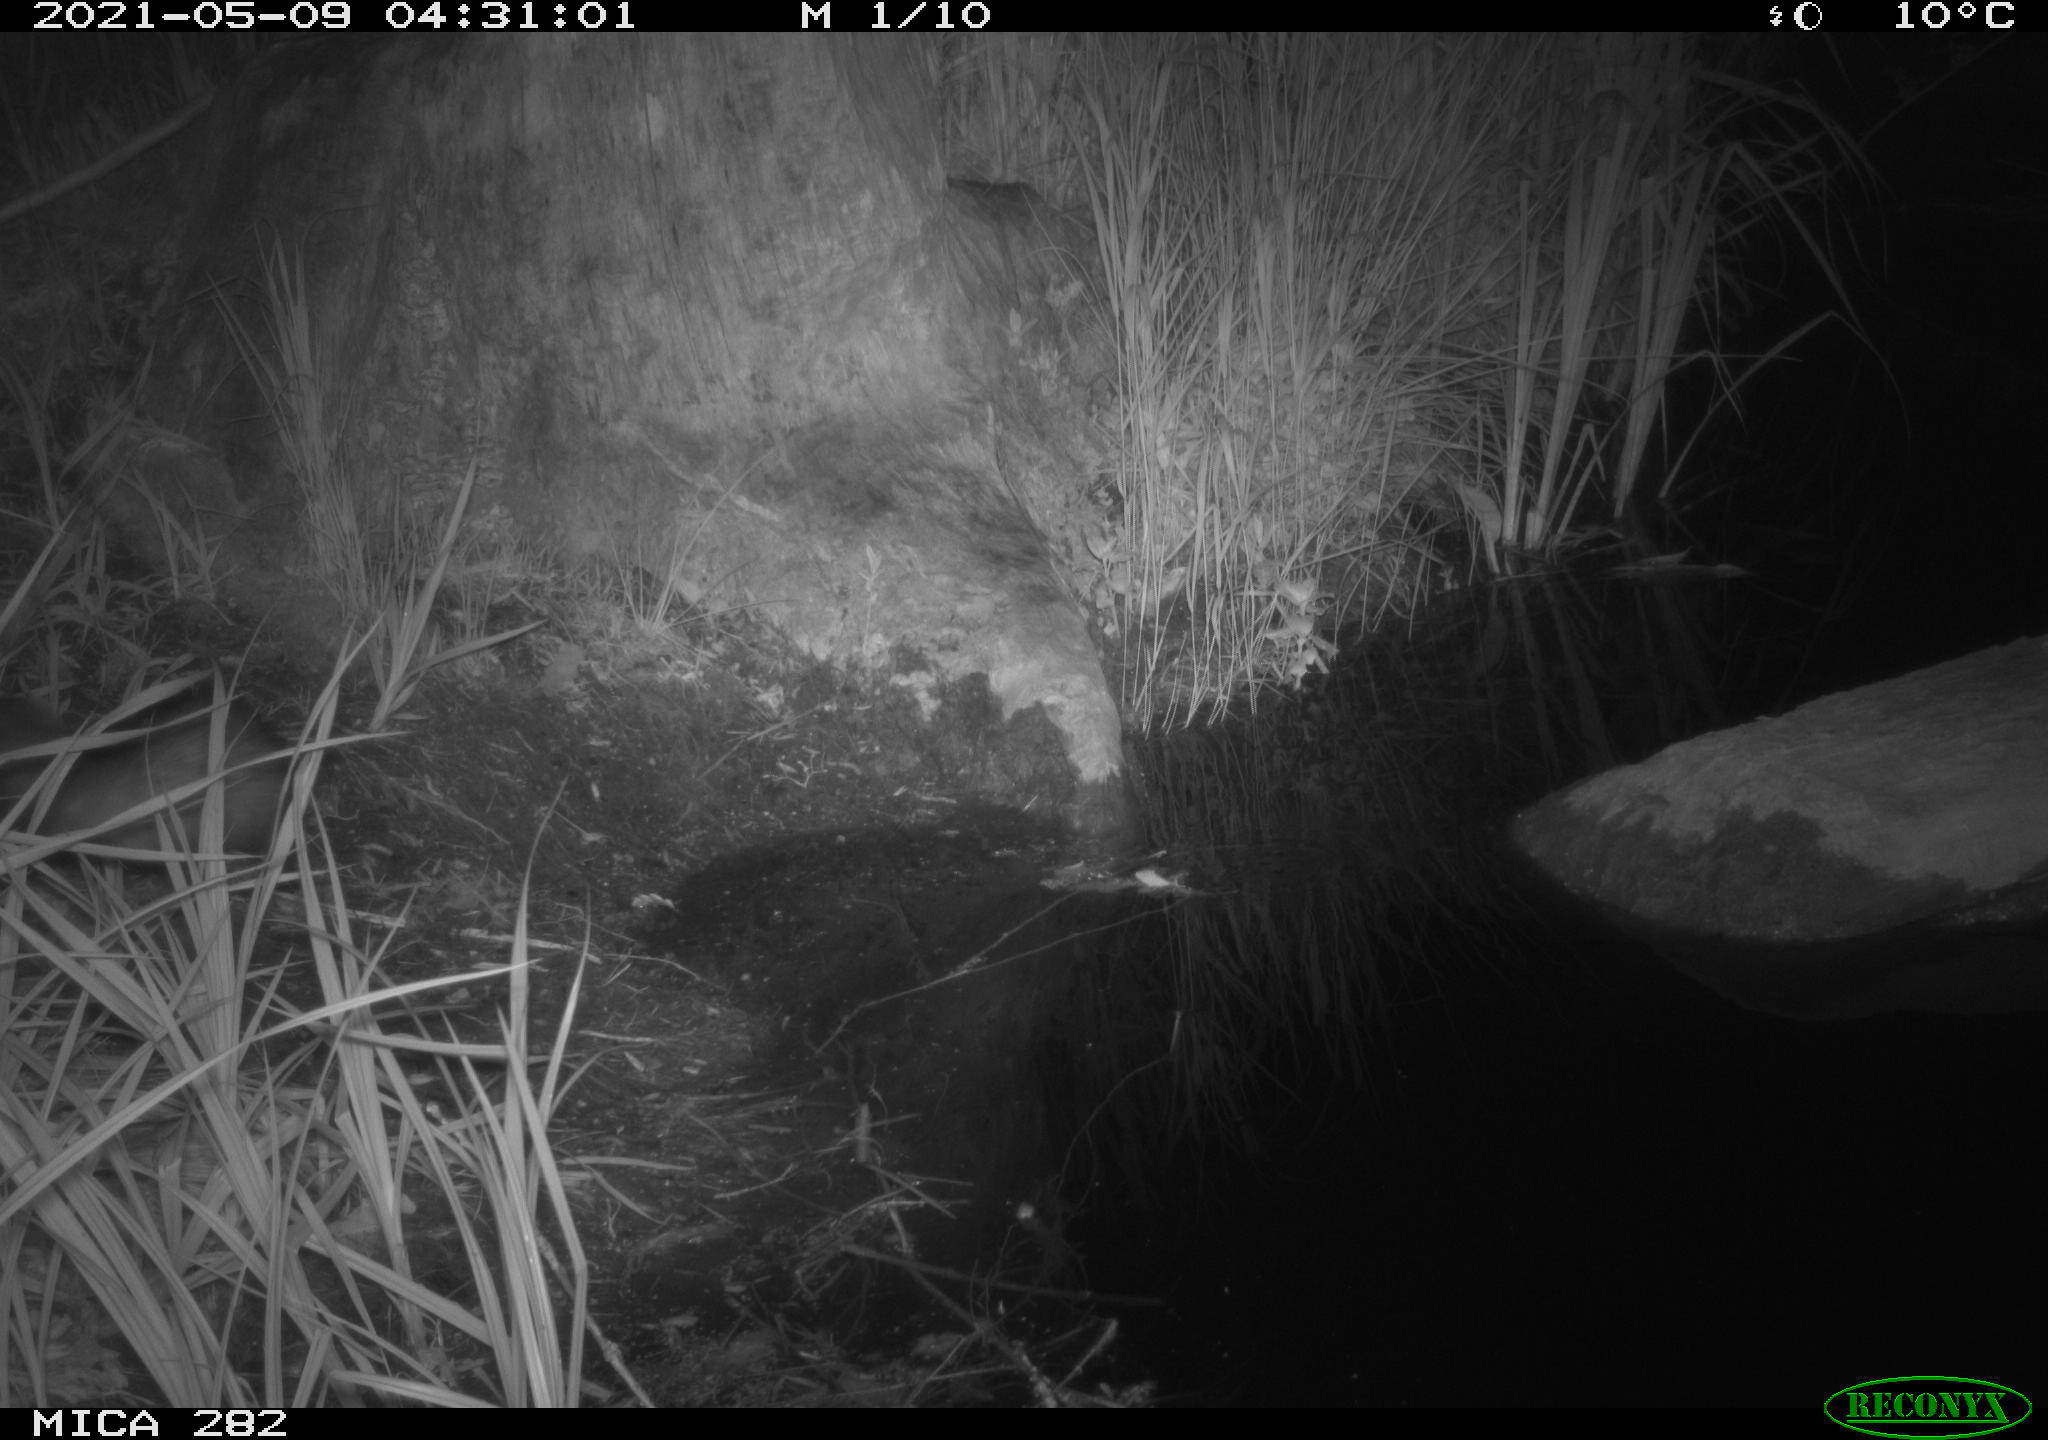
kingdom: Animalia
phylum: Chordata
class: Mammalia
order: Carnivora
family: Mustelidae
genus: Mustela
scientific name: Mustela putorius
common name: European polecat
